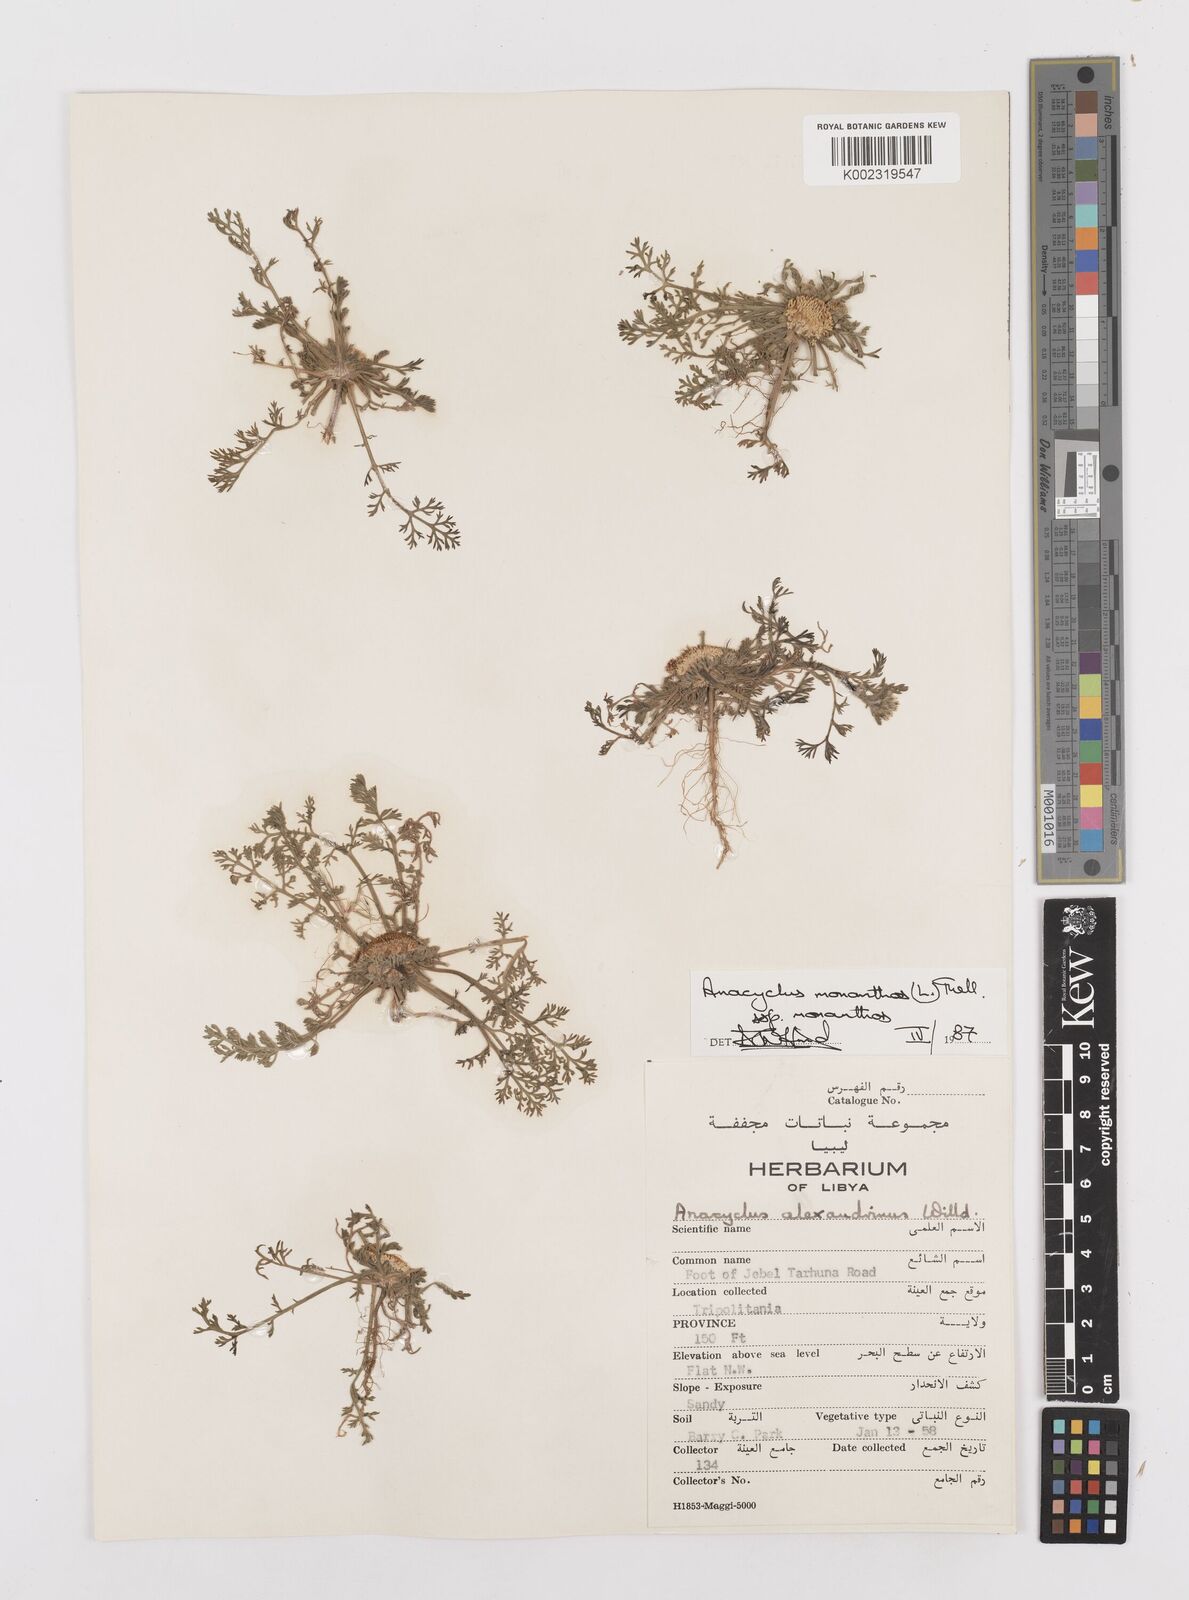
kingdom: Plantae
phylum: Tracheophyta
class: Magnoliopsida
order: Asterales
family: Asteraceae
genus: Anacyclus
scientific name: Anacyclus monanthos
